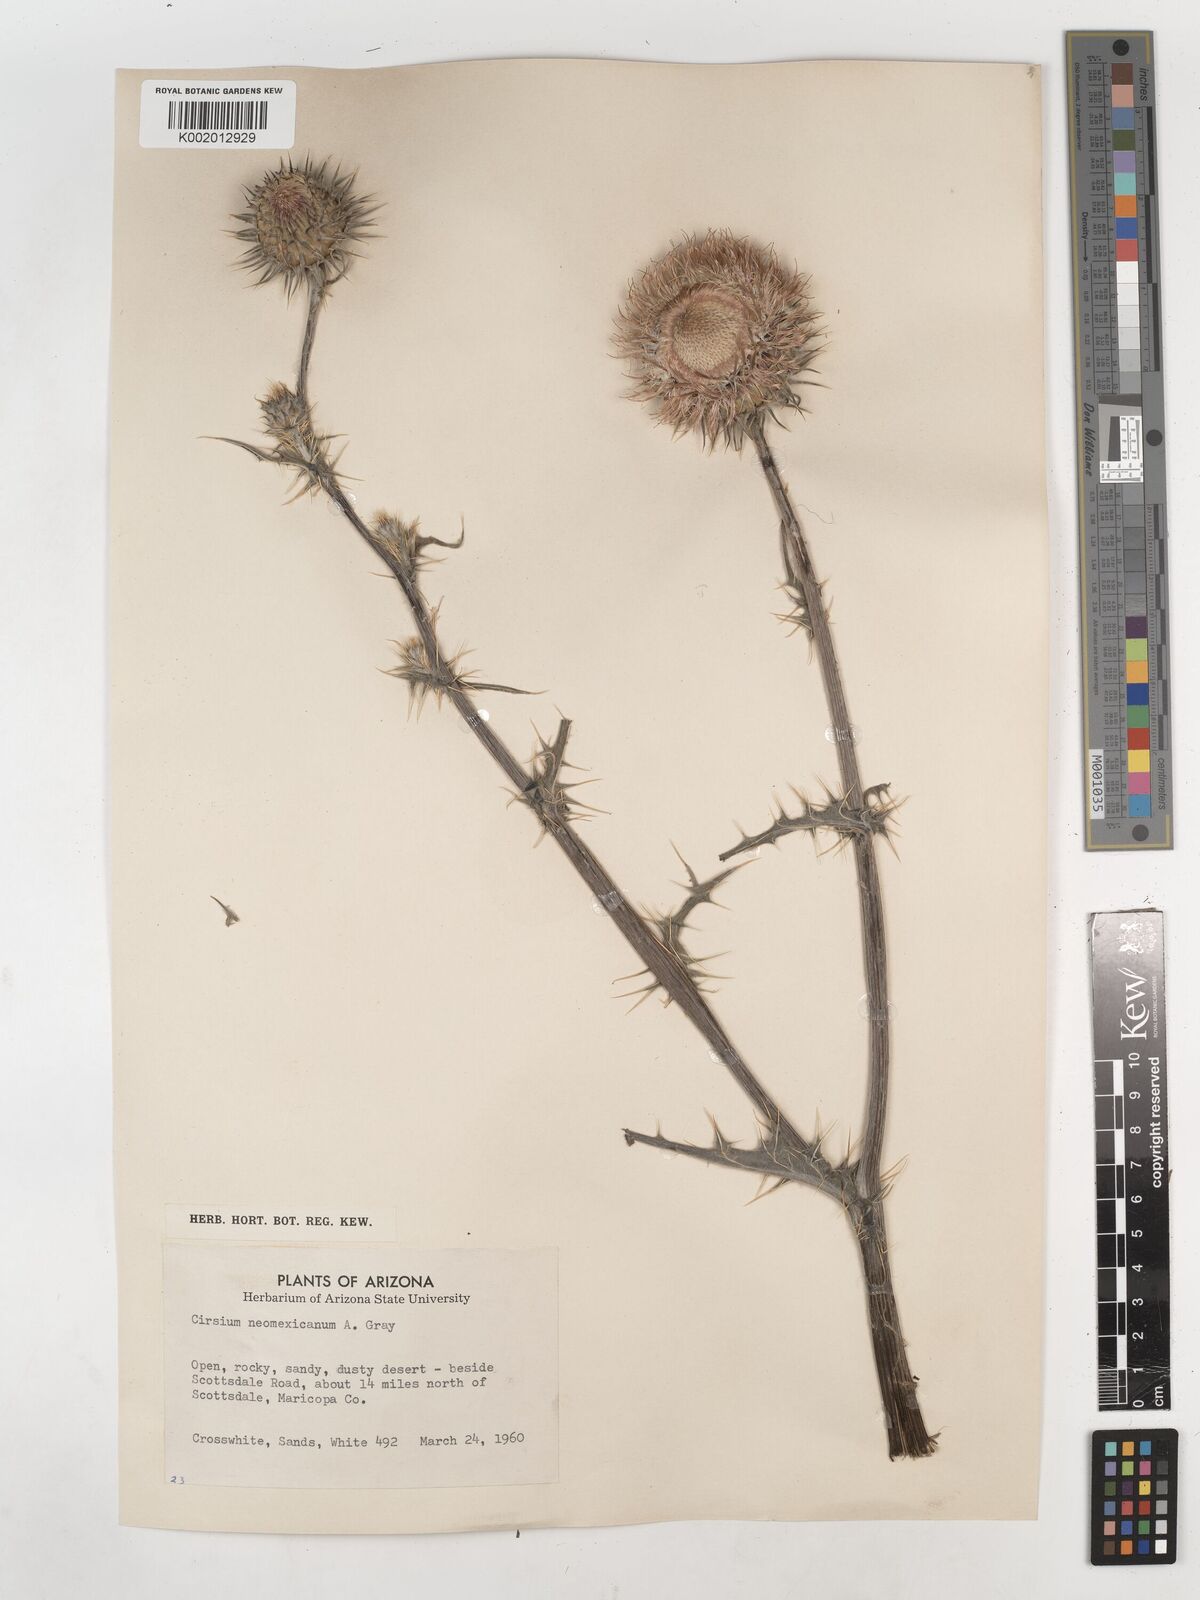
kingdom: Plantae
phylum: Tracheophyta
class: Magnoliopsida
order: Asterales
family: Asteraceae
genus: Cirsium
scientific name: Cirsium neomexicanum
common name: New mexico thistle
